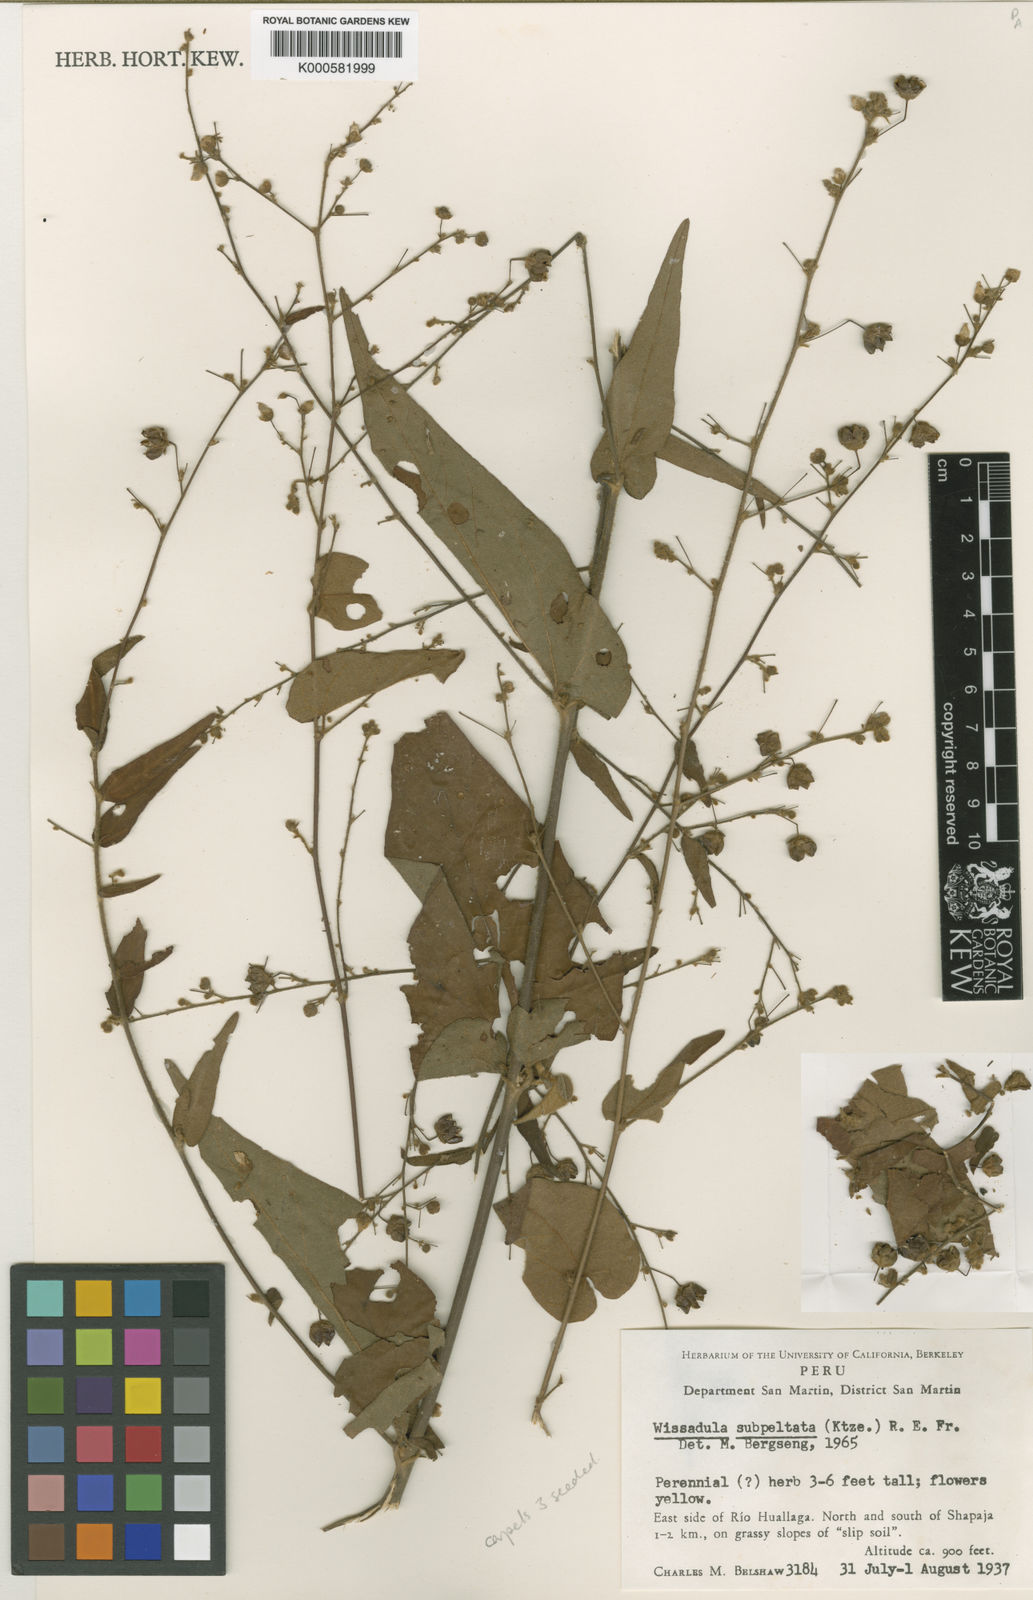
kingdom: Plantae
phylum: Tracheophyta
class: Magnoliopsida
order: Malvales
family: Malvaceae
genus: Wissadula
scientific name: Wissadula subpeltata
